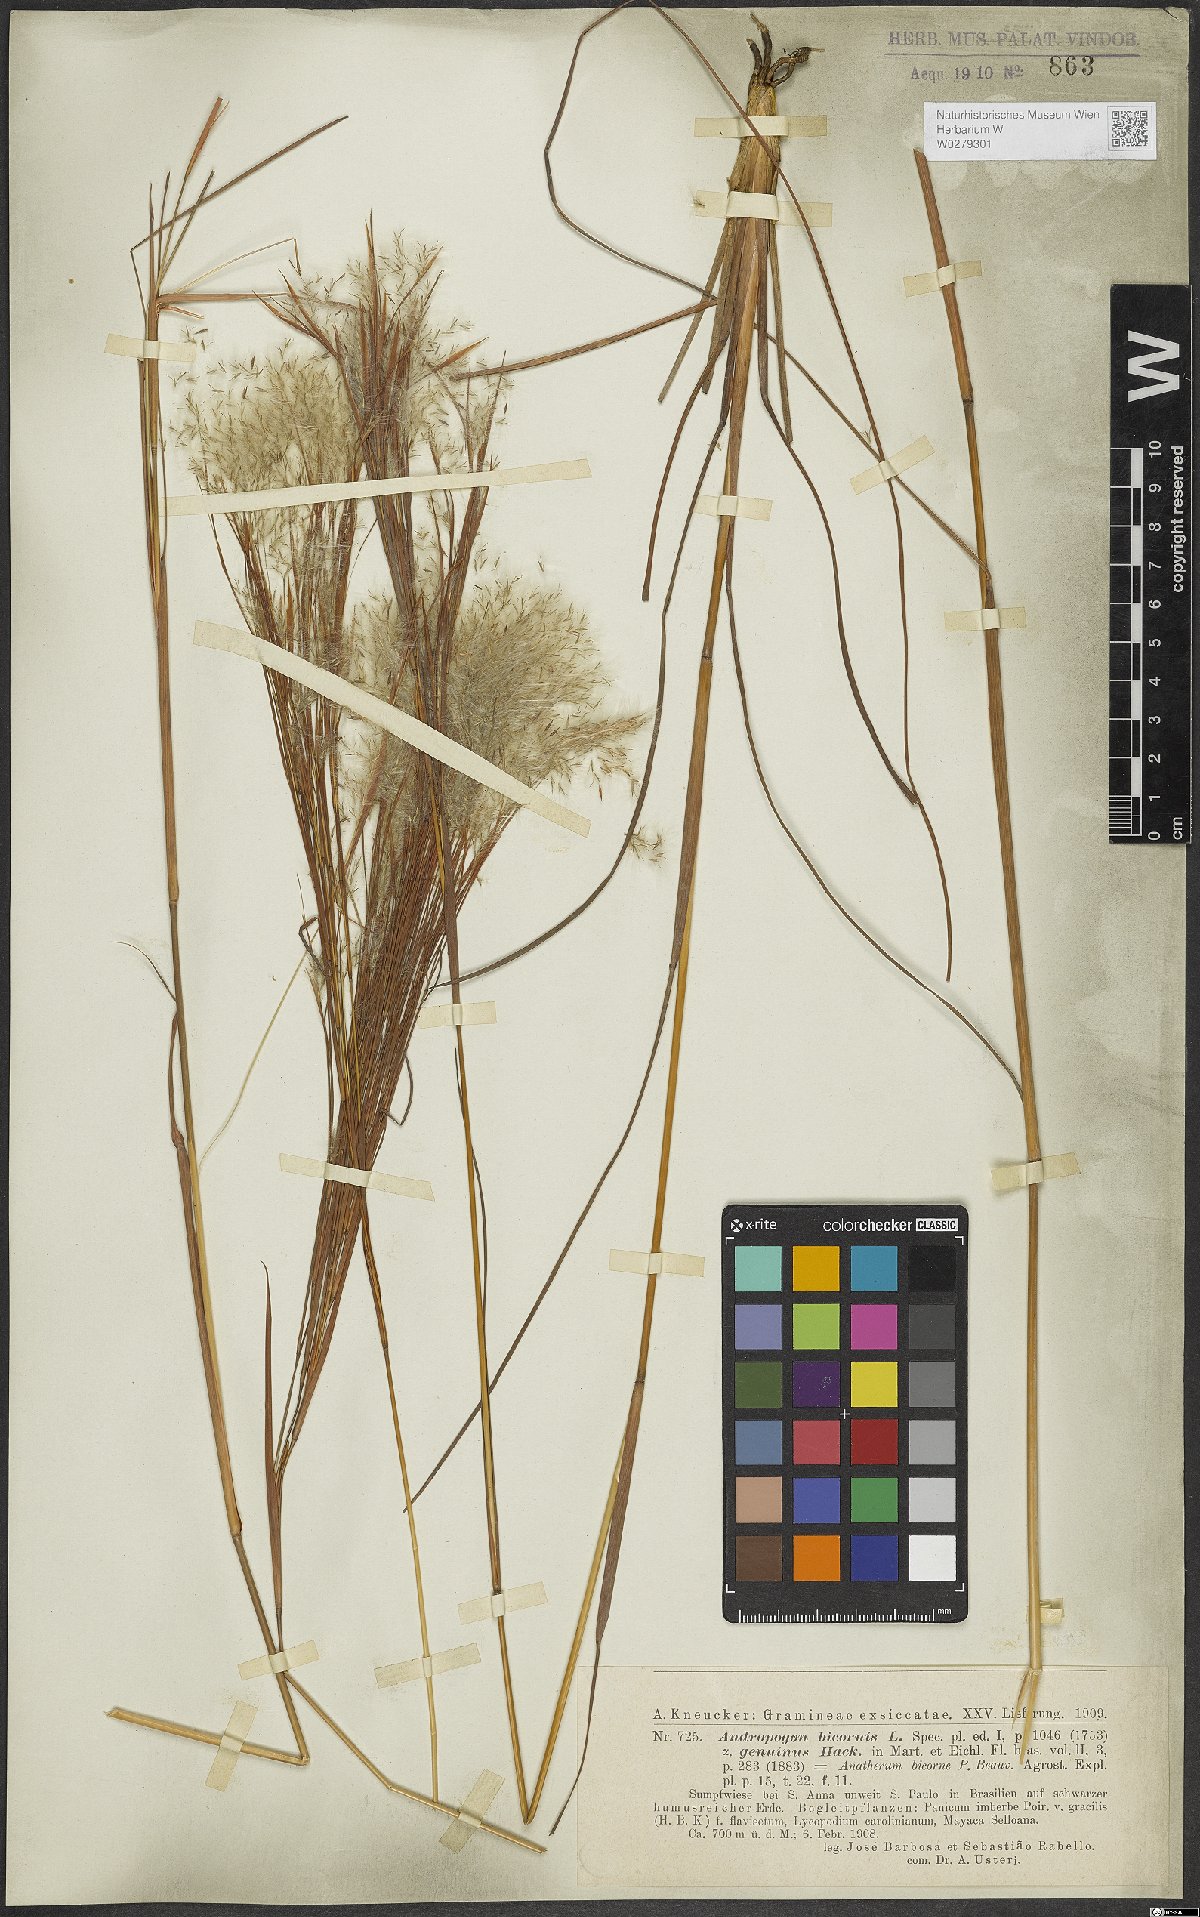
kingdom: Plantae
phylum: Tracheophyta
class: Liliopsida
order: Poales
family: Poaceae
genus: Andropogon
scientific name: Andropogon bicornis
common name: West indian foxtail grass
